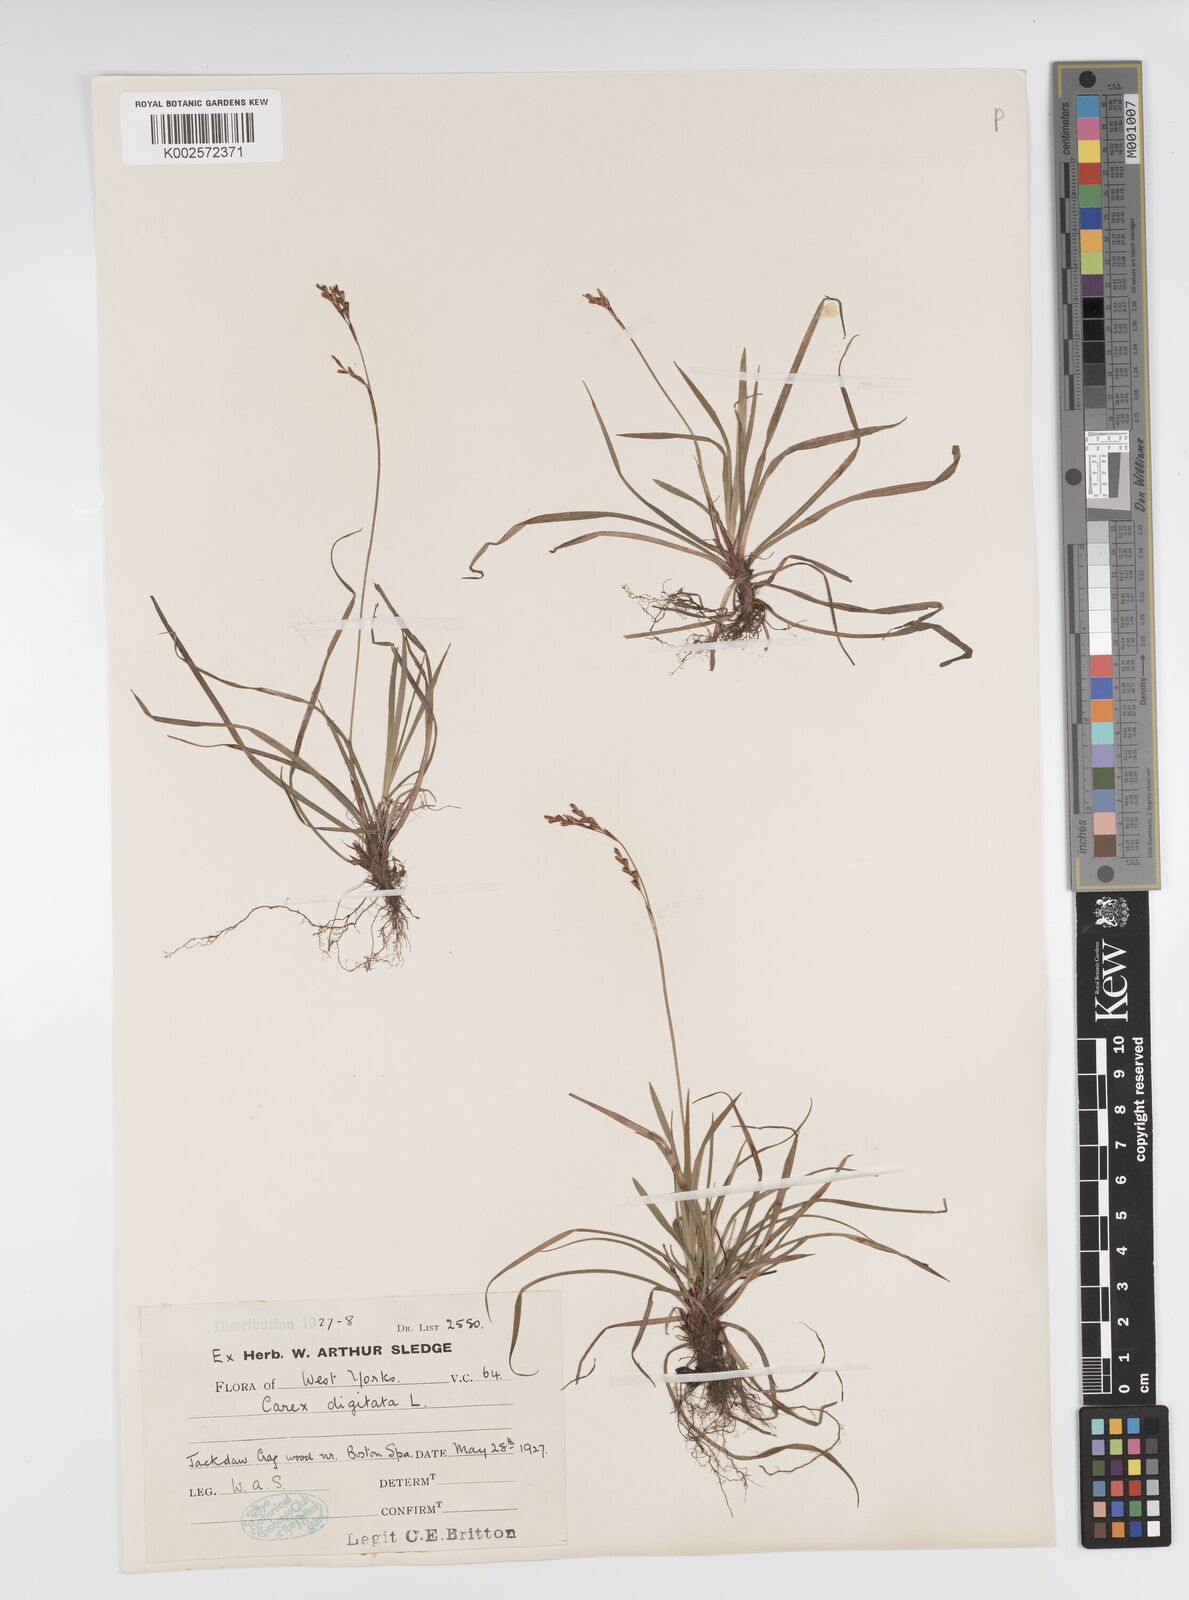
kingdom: Plantae
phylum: Tracheophyta
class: Liliopsida
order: Poales
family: Cyperaceae
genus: Carex
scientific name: Carex digitata
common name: Fingered sedge
